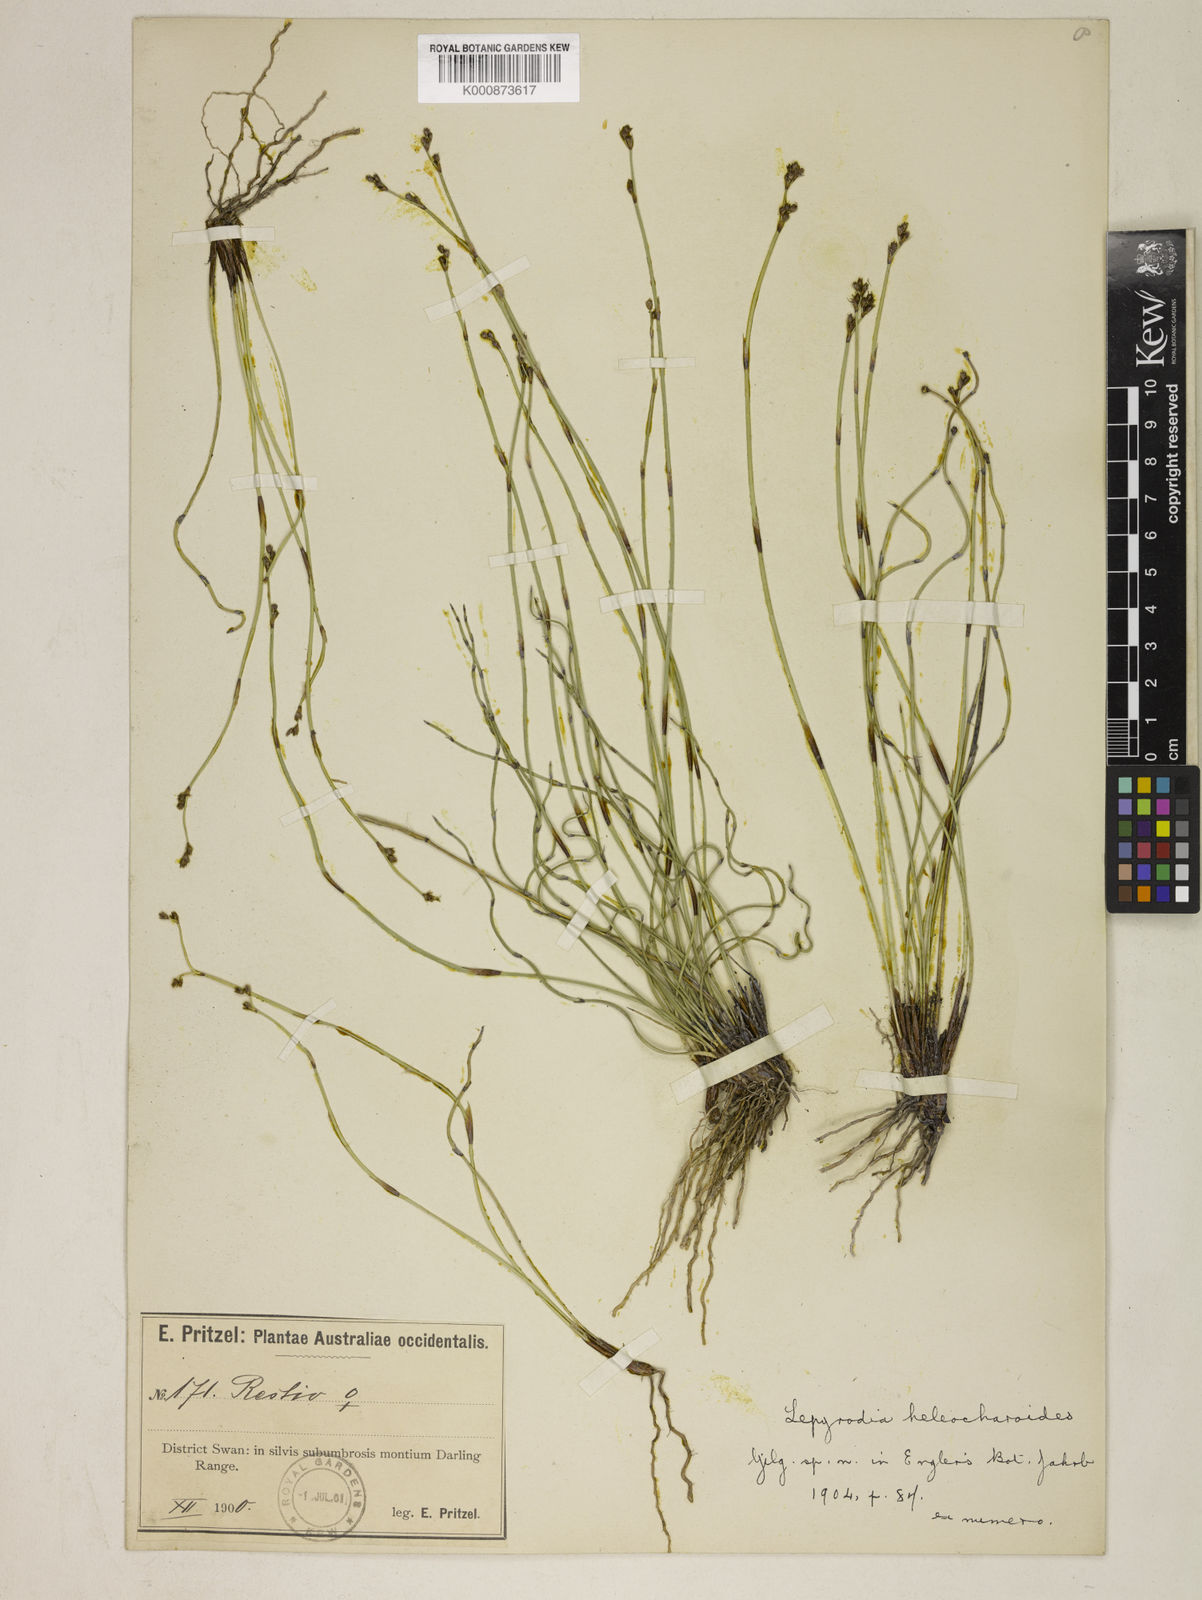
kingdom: Plantae
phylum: Tracheophyta
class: Liliopsida
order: Poales
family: Restionaceae
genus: Lepyrodia
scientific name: Lepyrodia heleocharoides
